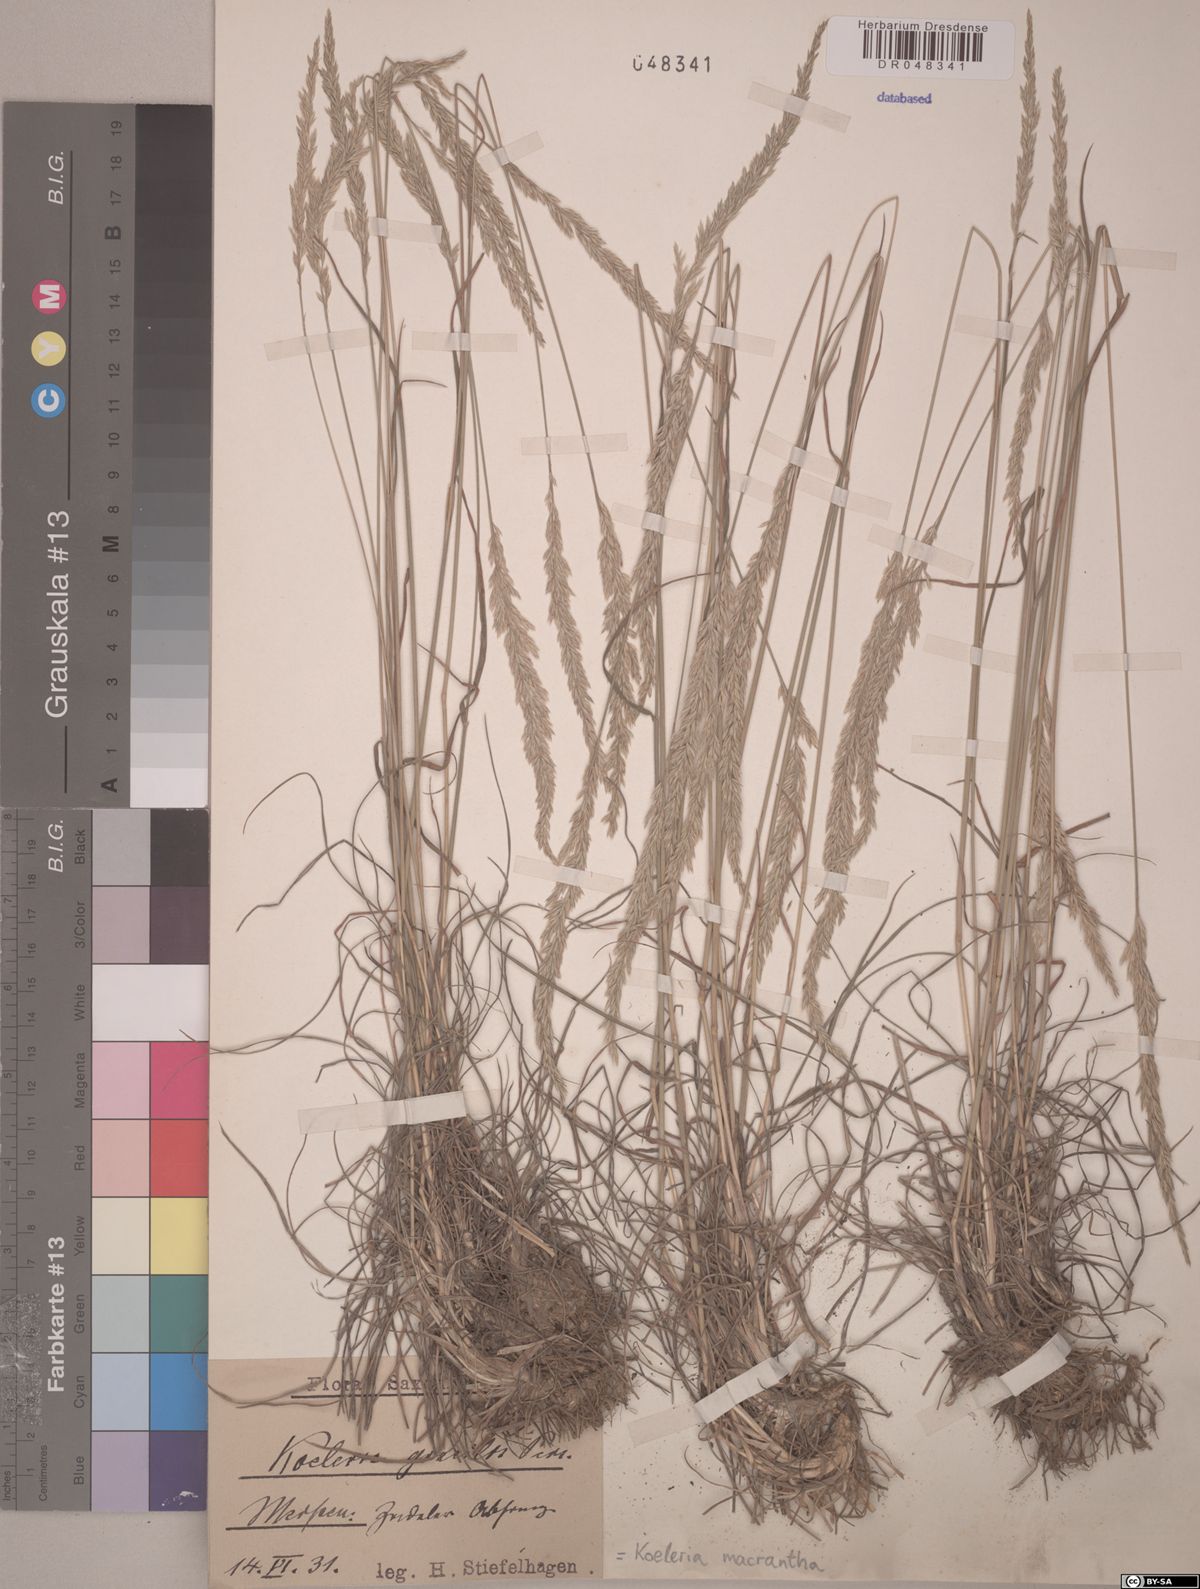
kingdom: Plantae
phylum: Tracheophyta
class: Liliopsida
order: Poales
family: Poaceae
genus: Koeleria
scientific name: Koeleria macrantha
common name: Crested hair-grass
